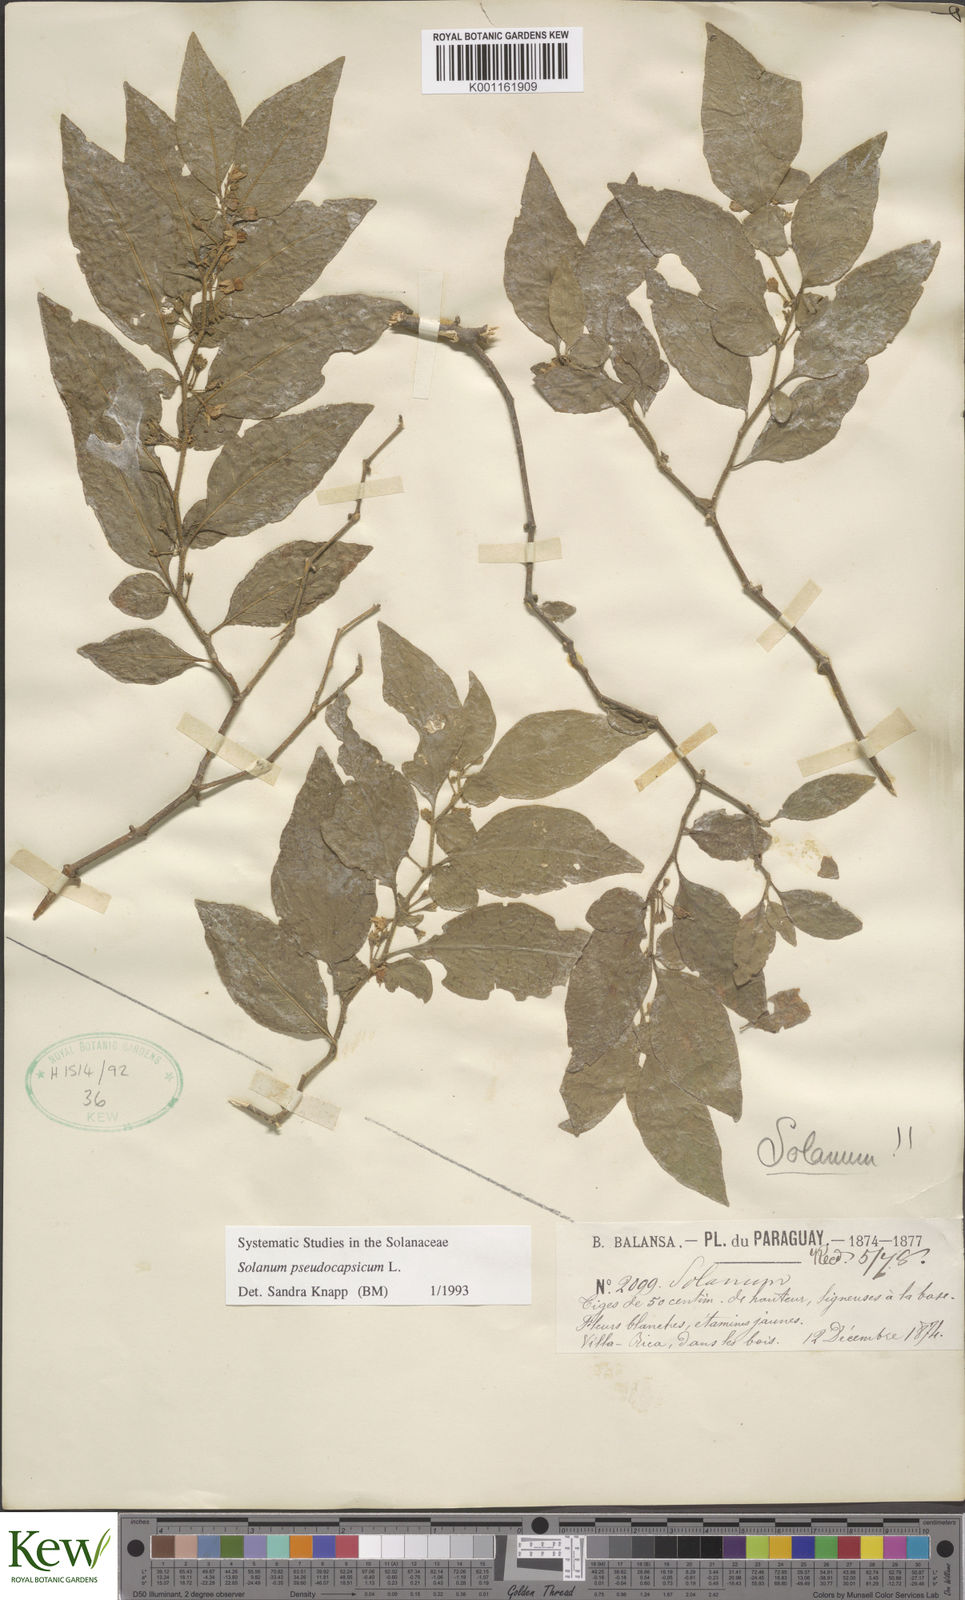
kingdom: Plantae
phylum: Tracheophyta
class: Magnoliopsida
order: Solanales
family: Solanaceae
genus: Solanum
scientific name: Solanum pseudocapsicum
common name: Jerusalem cherry
